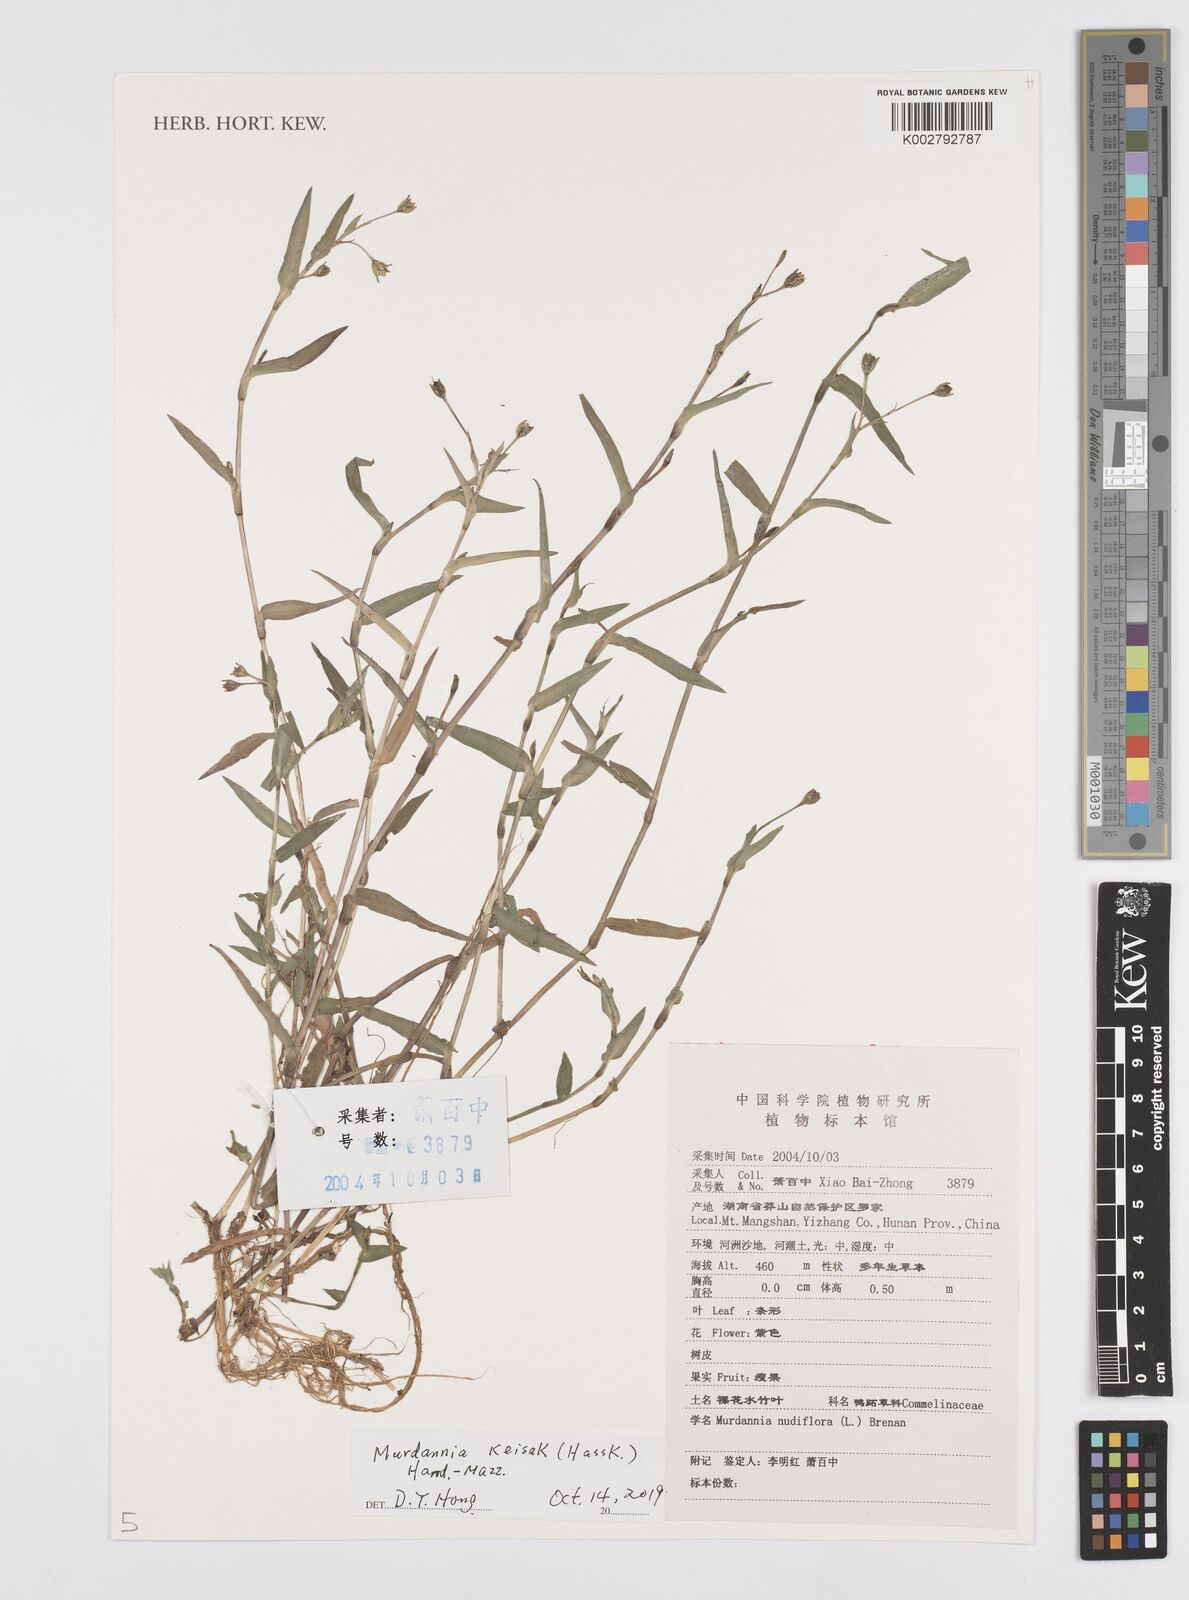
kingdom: Plantae
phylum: Tracheophyta
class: Liliopsida
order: Commelinales
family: Commelinaceae
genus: Murdannia
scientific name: Murdannia keisak
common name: Wartremoving herb
